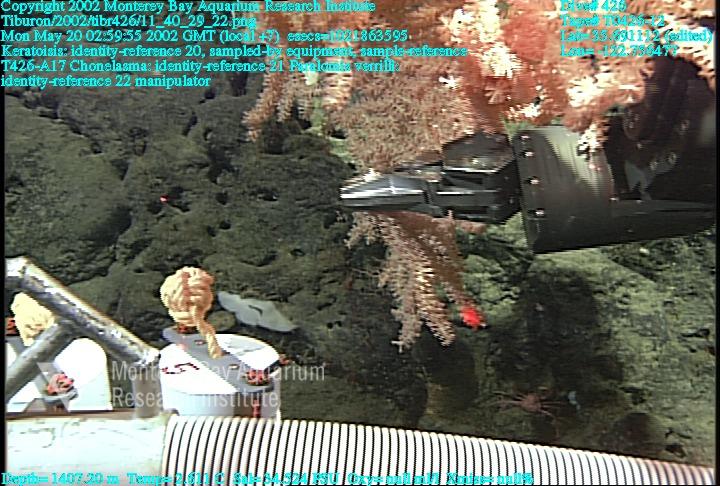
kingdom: Animalia
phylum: Porifera
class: Hexactinellida
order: Sceptrulophora
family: Euretidae
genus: Chonelasma
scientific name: Chonelasma
